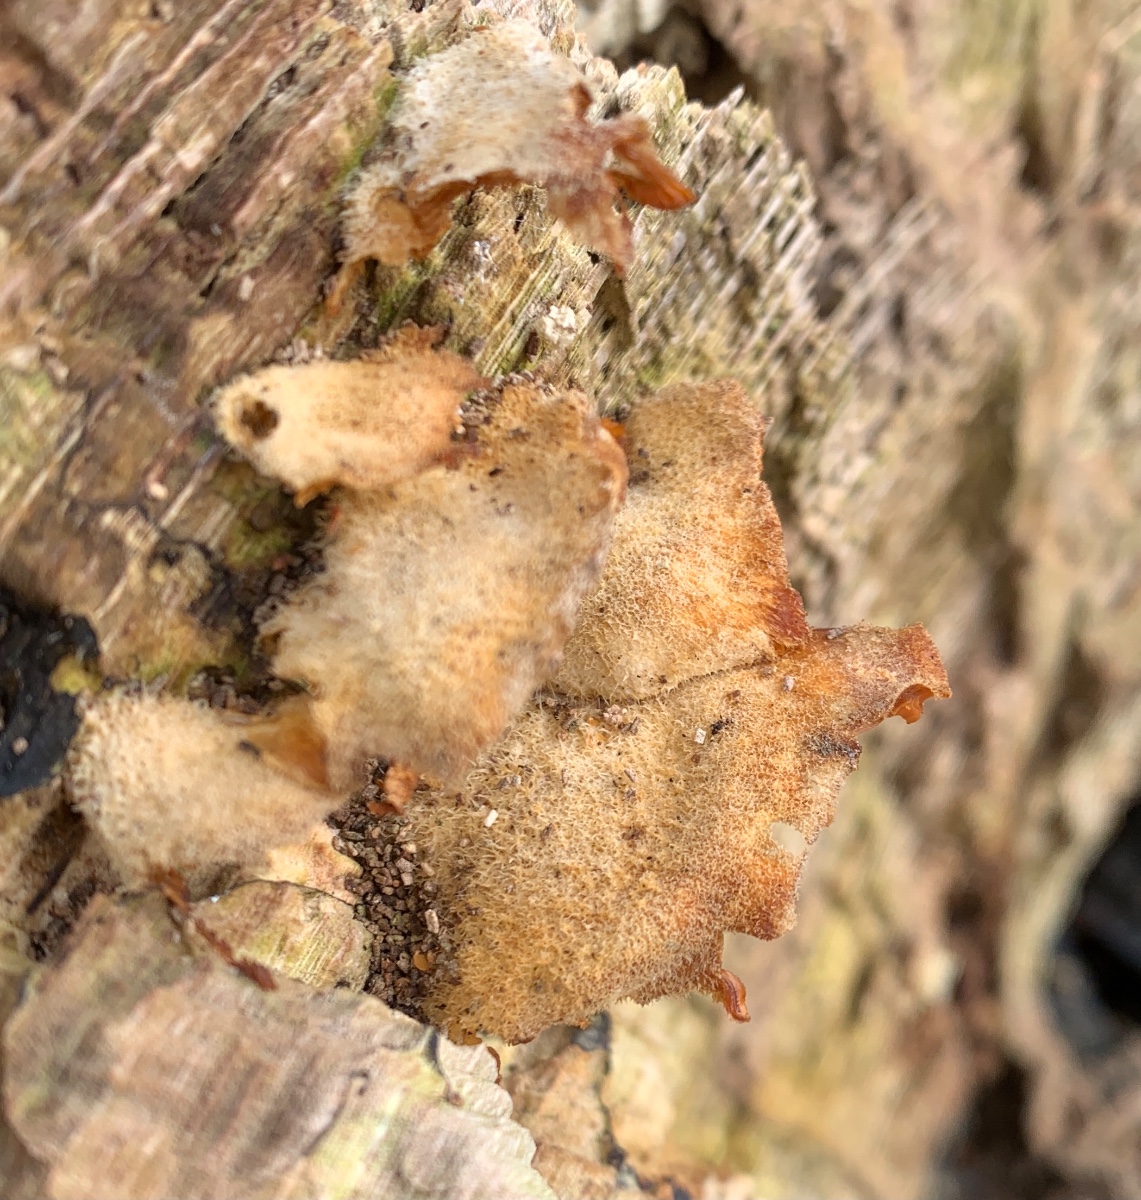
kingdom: Fungi
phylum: Basidiomycota
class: Agaricomycetes
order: Agaricales
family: Phyllotopsidaceae
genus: Phyllotopsis
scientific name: Phyllotopsis nidulans
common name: okkerblad
